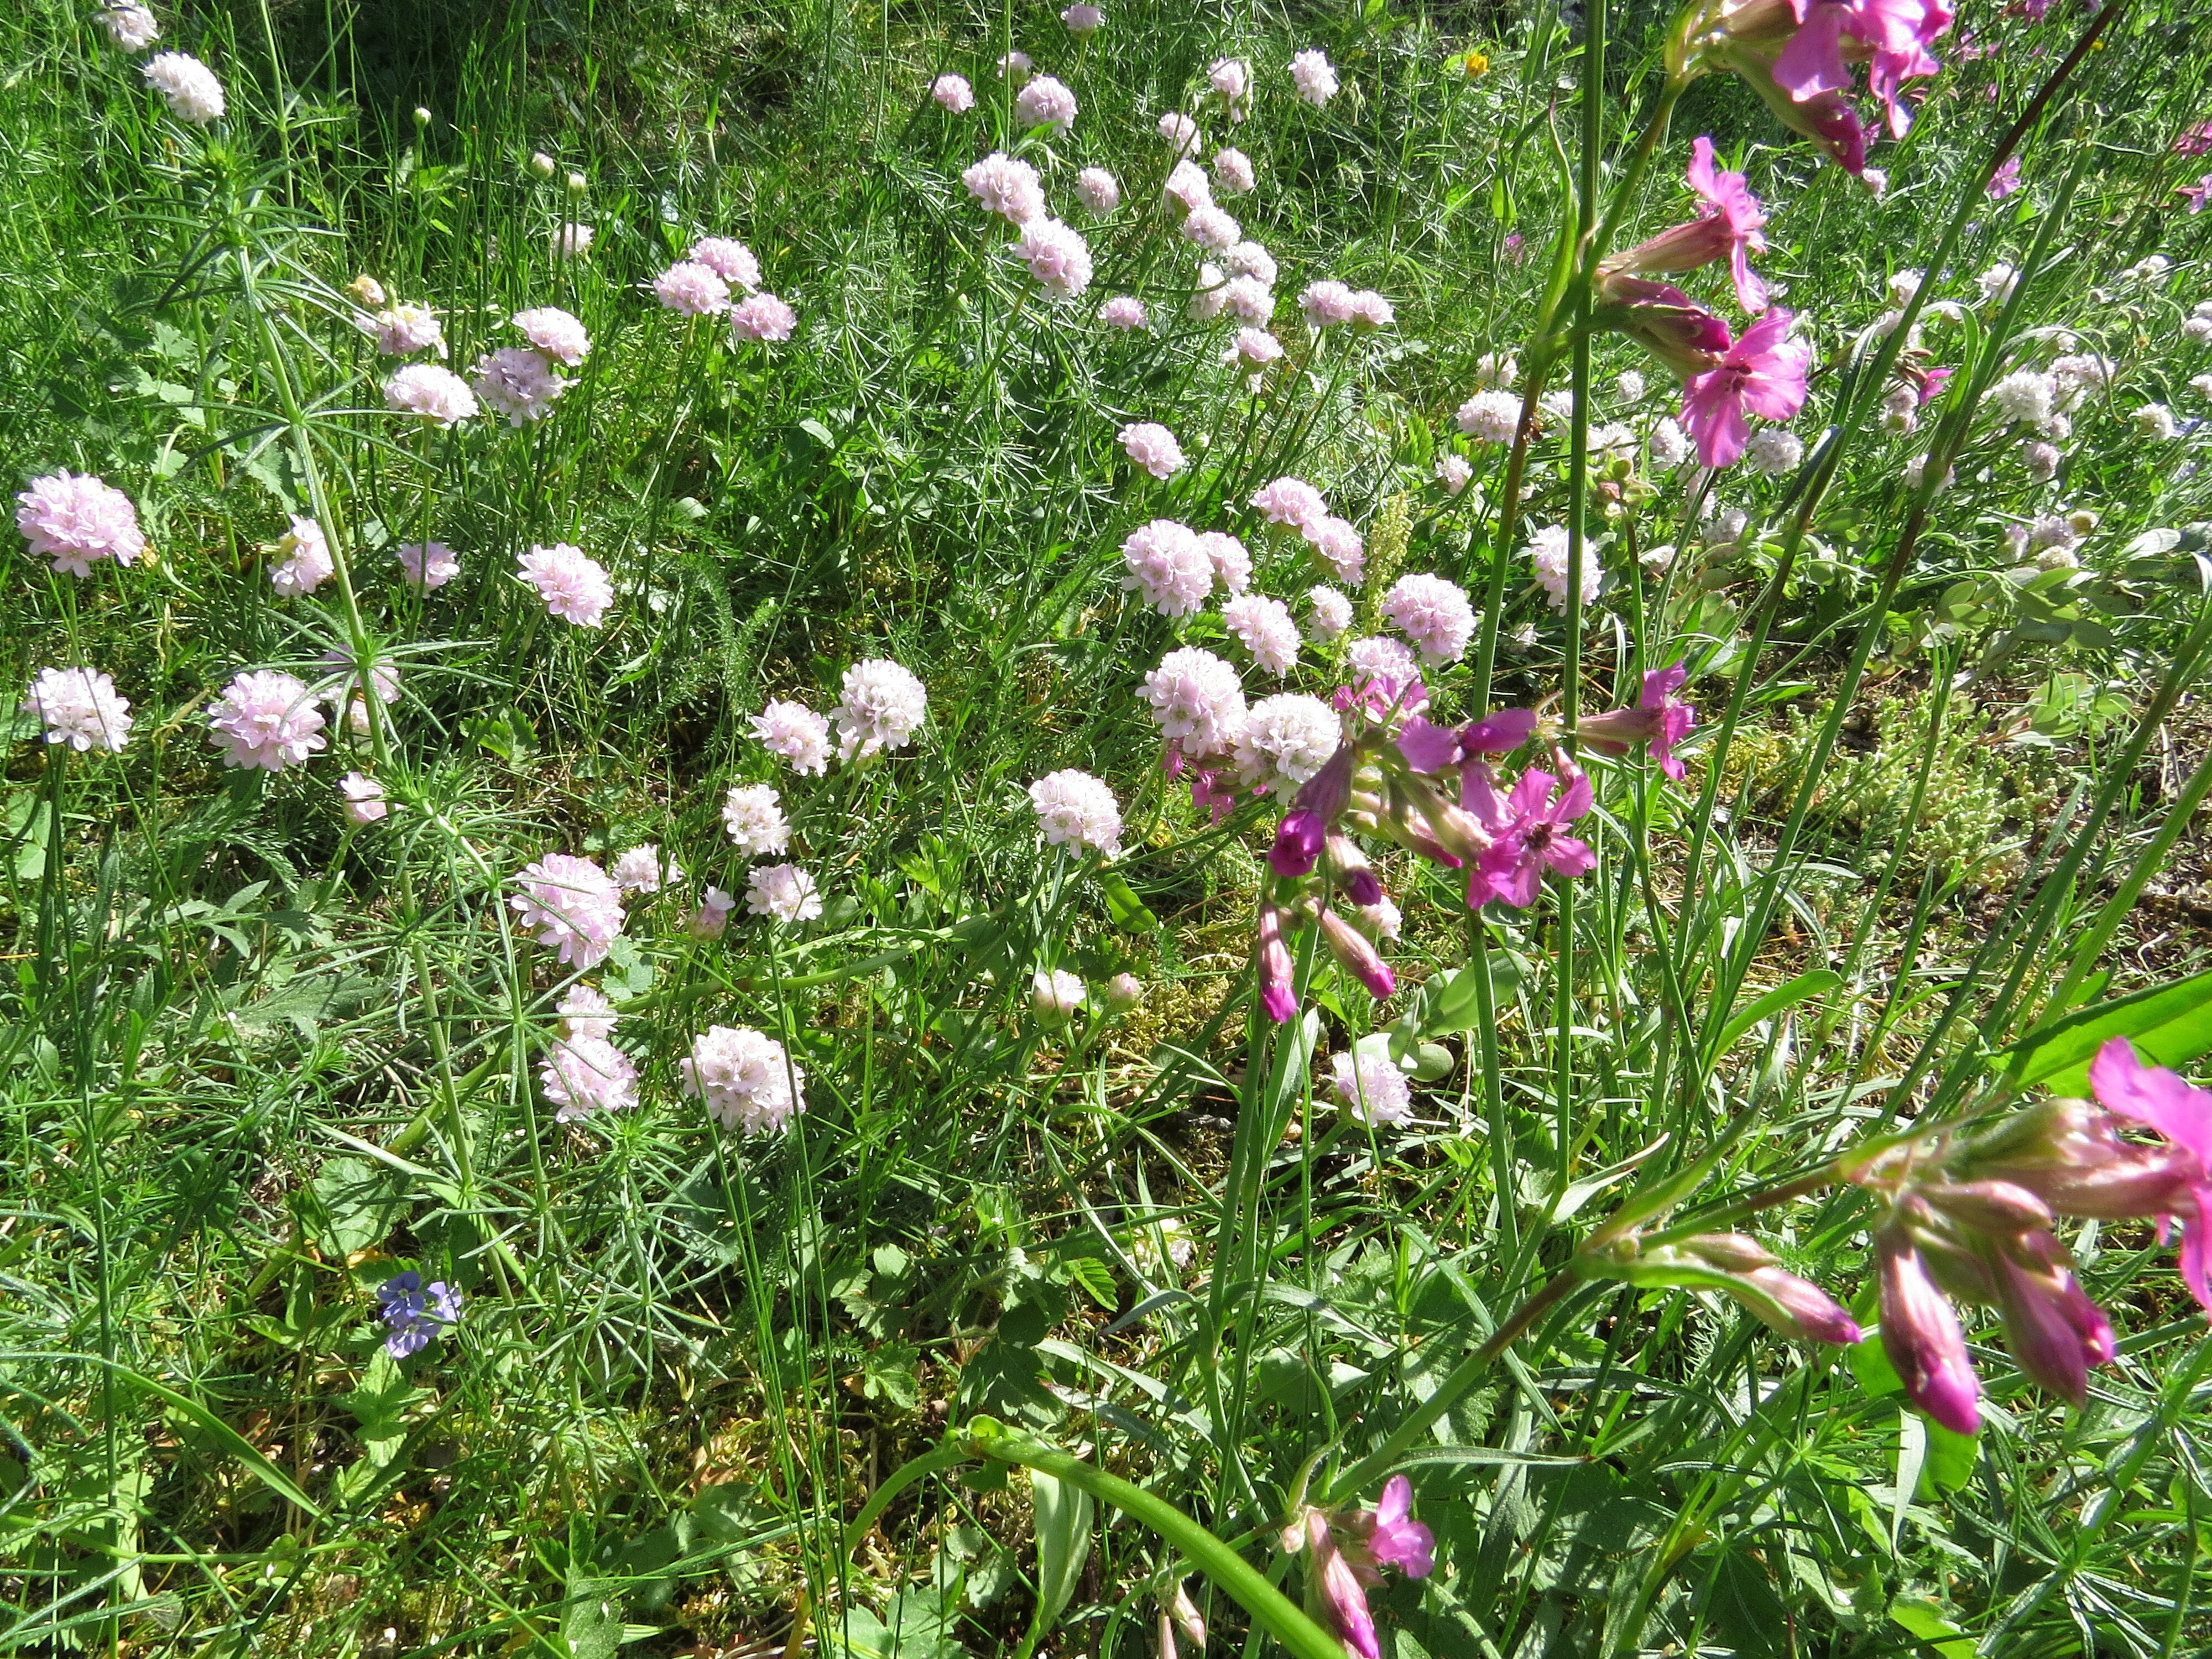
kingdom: Plantae
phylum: Tracheophyta
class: Magnoliopsida
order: Caryophyllales
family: Plumbaginaceae
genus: Armeria
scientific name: Armeria
